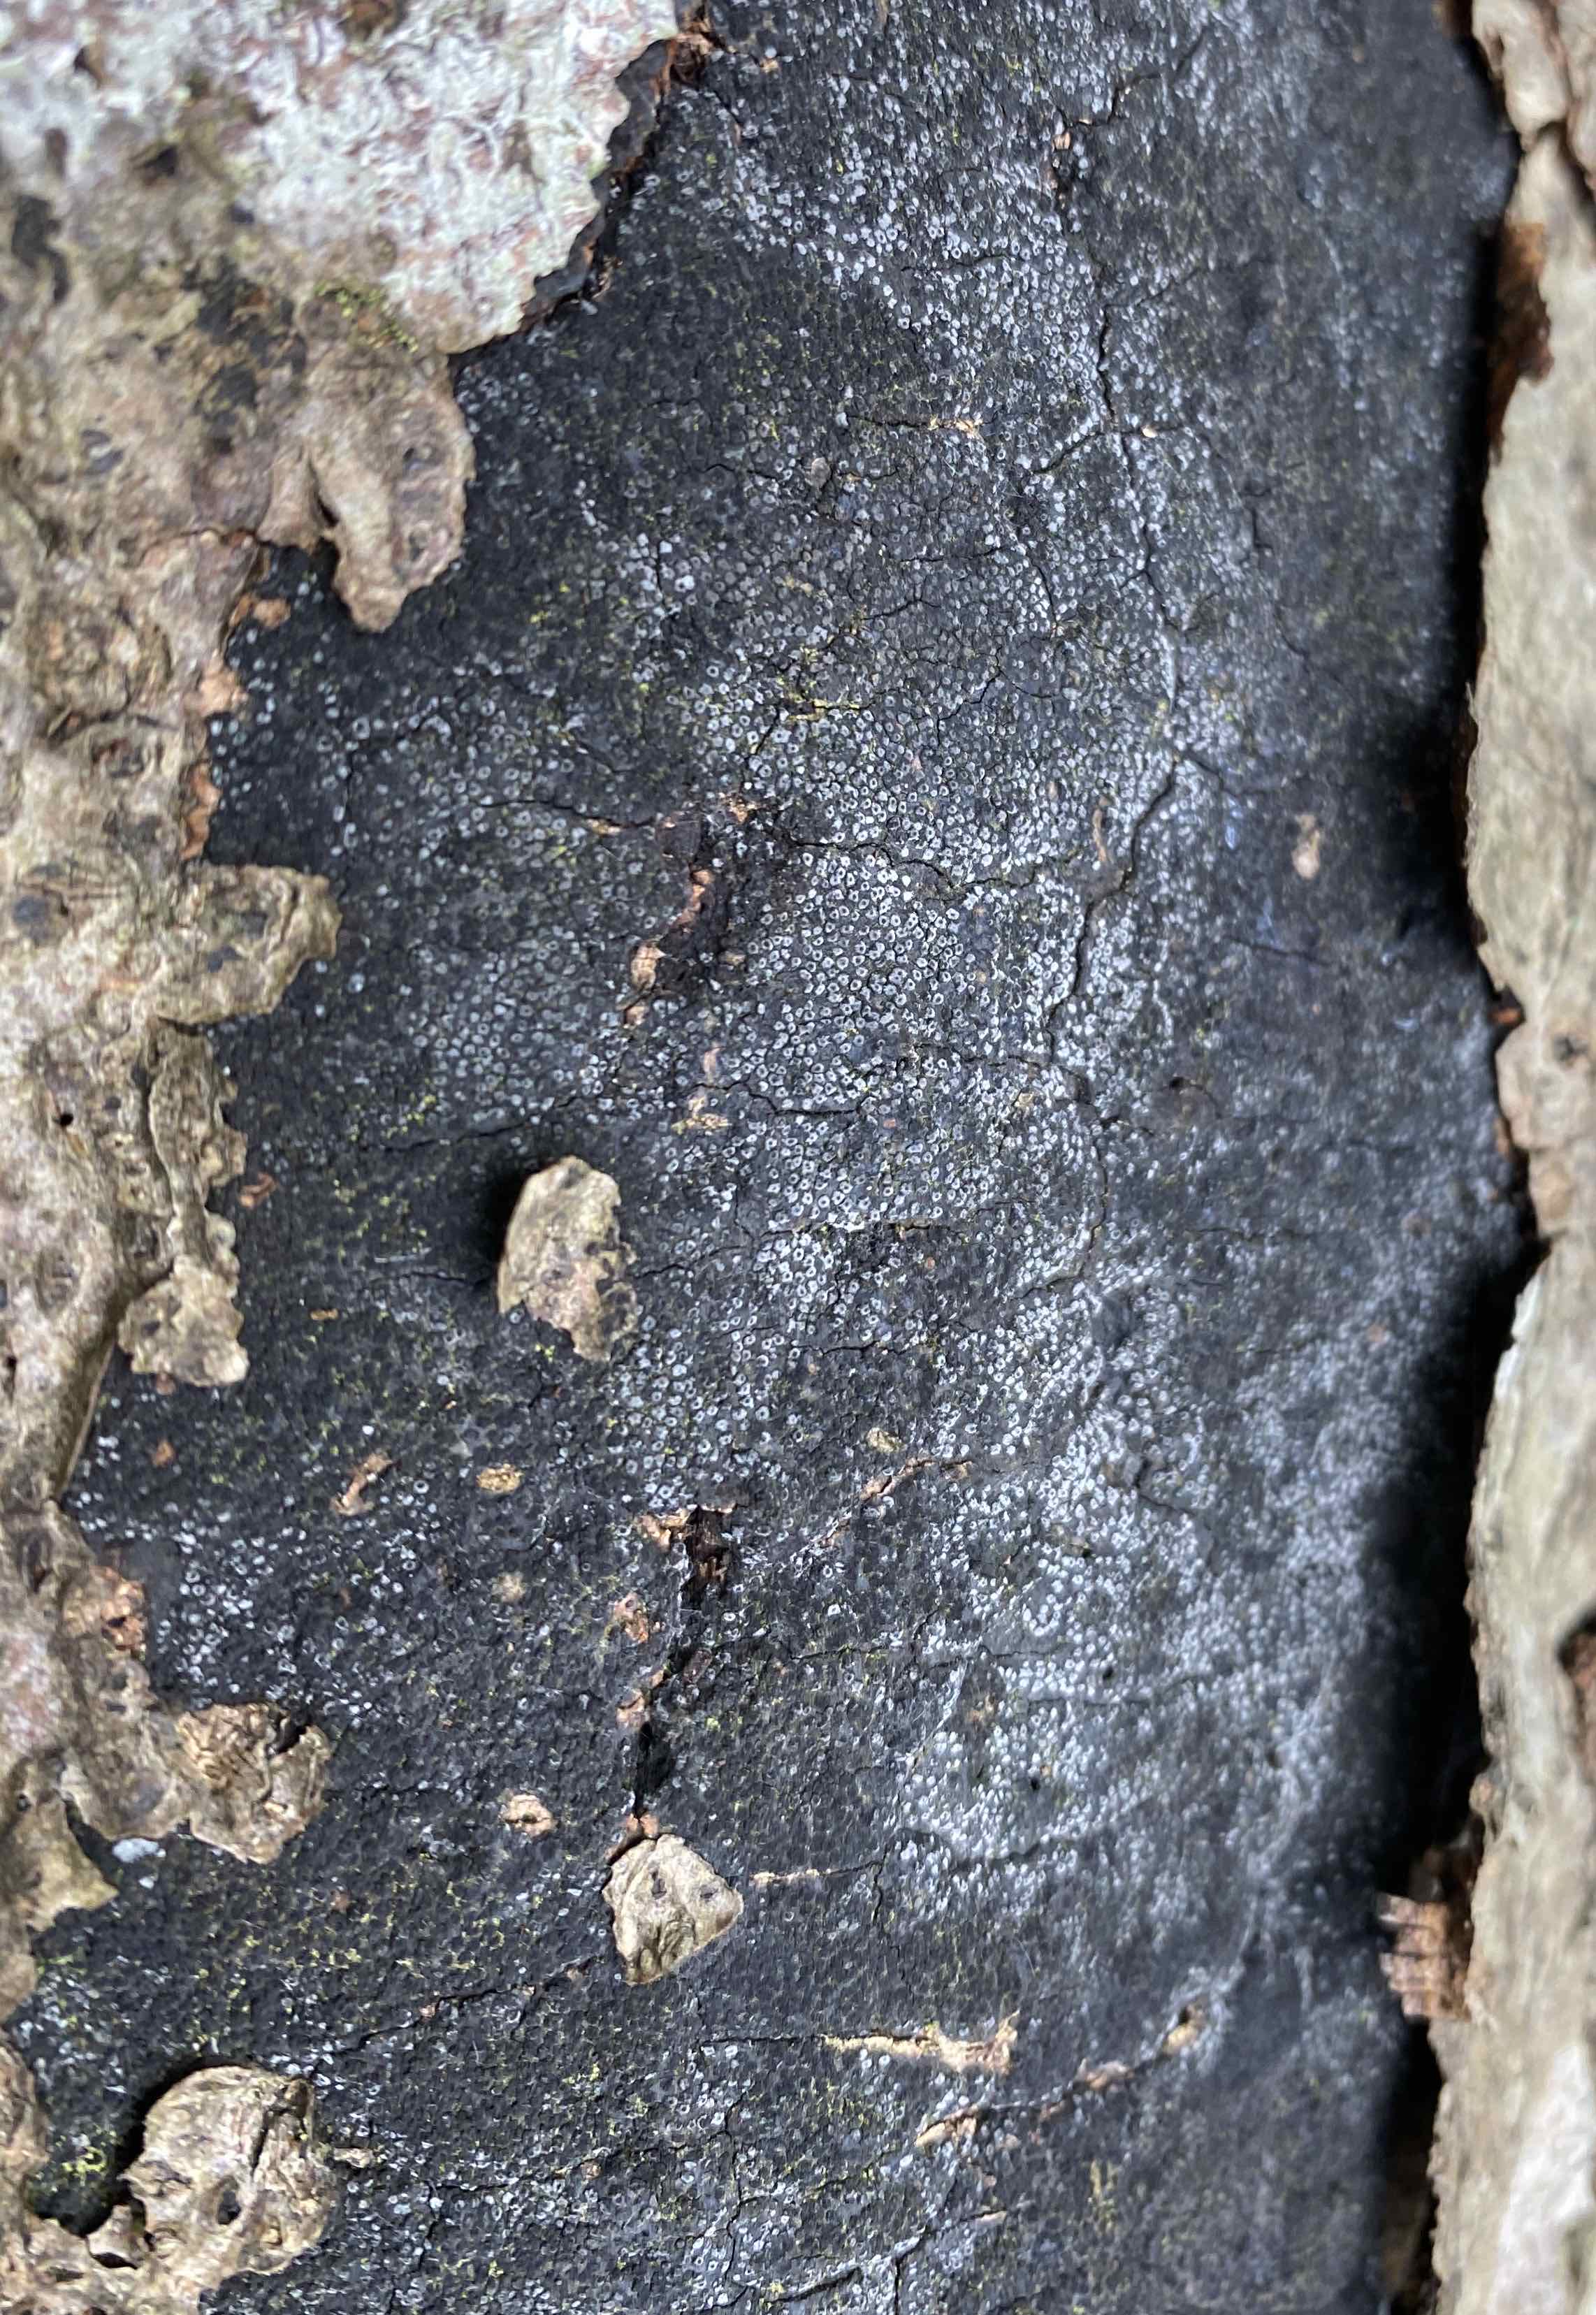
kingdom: Fungi
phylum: Ascomycota
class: Sordariomycetes
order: Xylariales
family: Diatrypaceae
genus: Eutypa
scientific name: Eutypa spinosa
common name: grov kulskorpe
